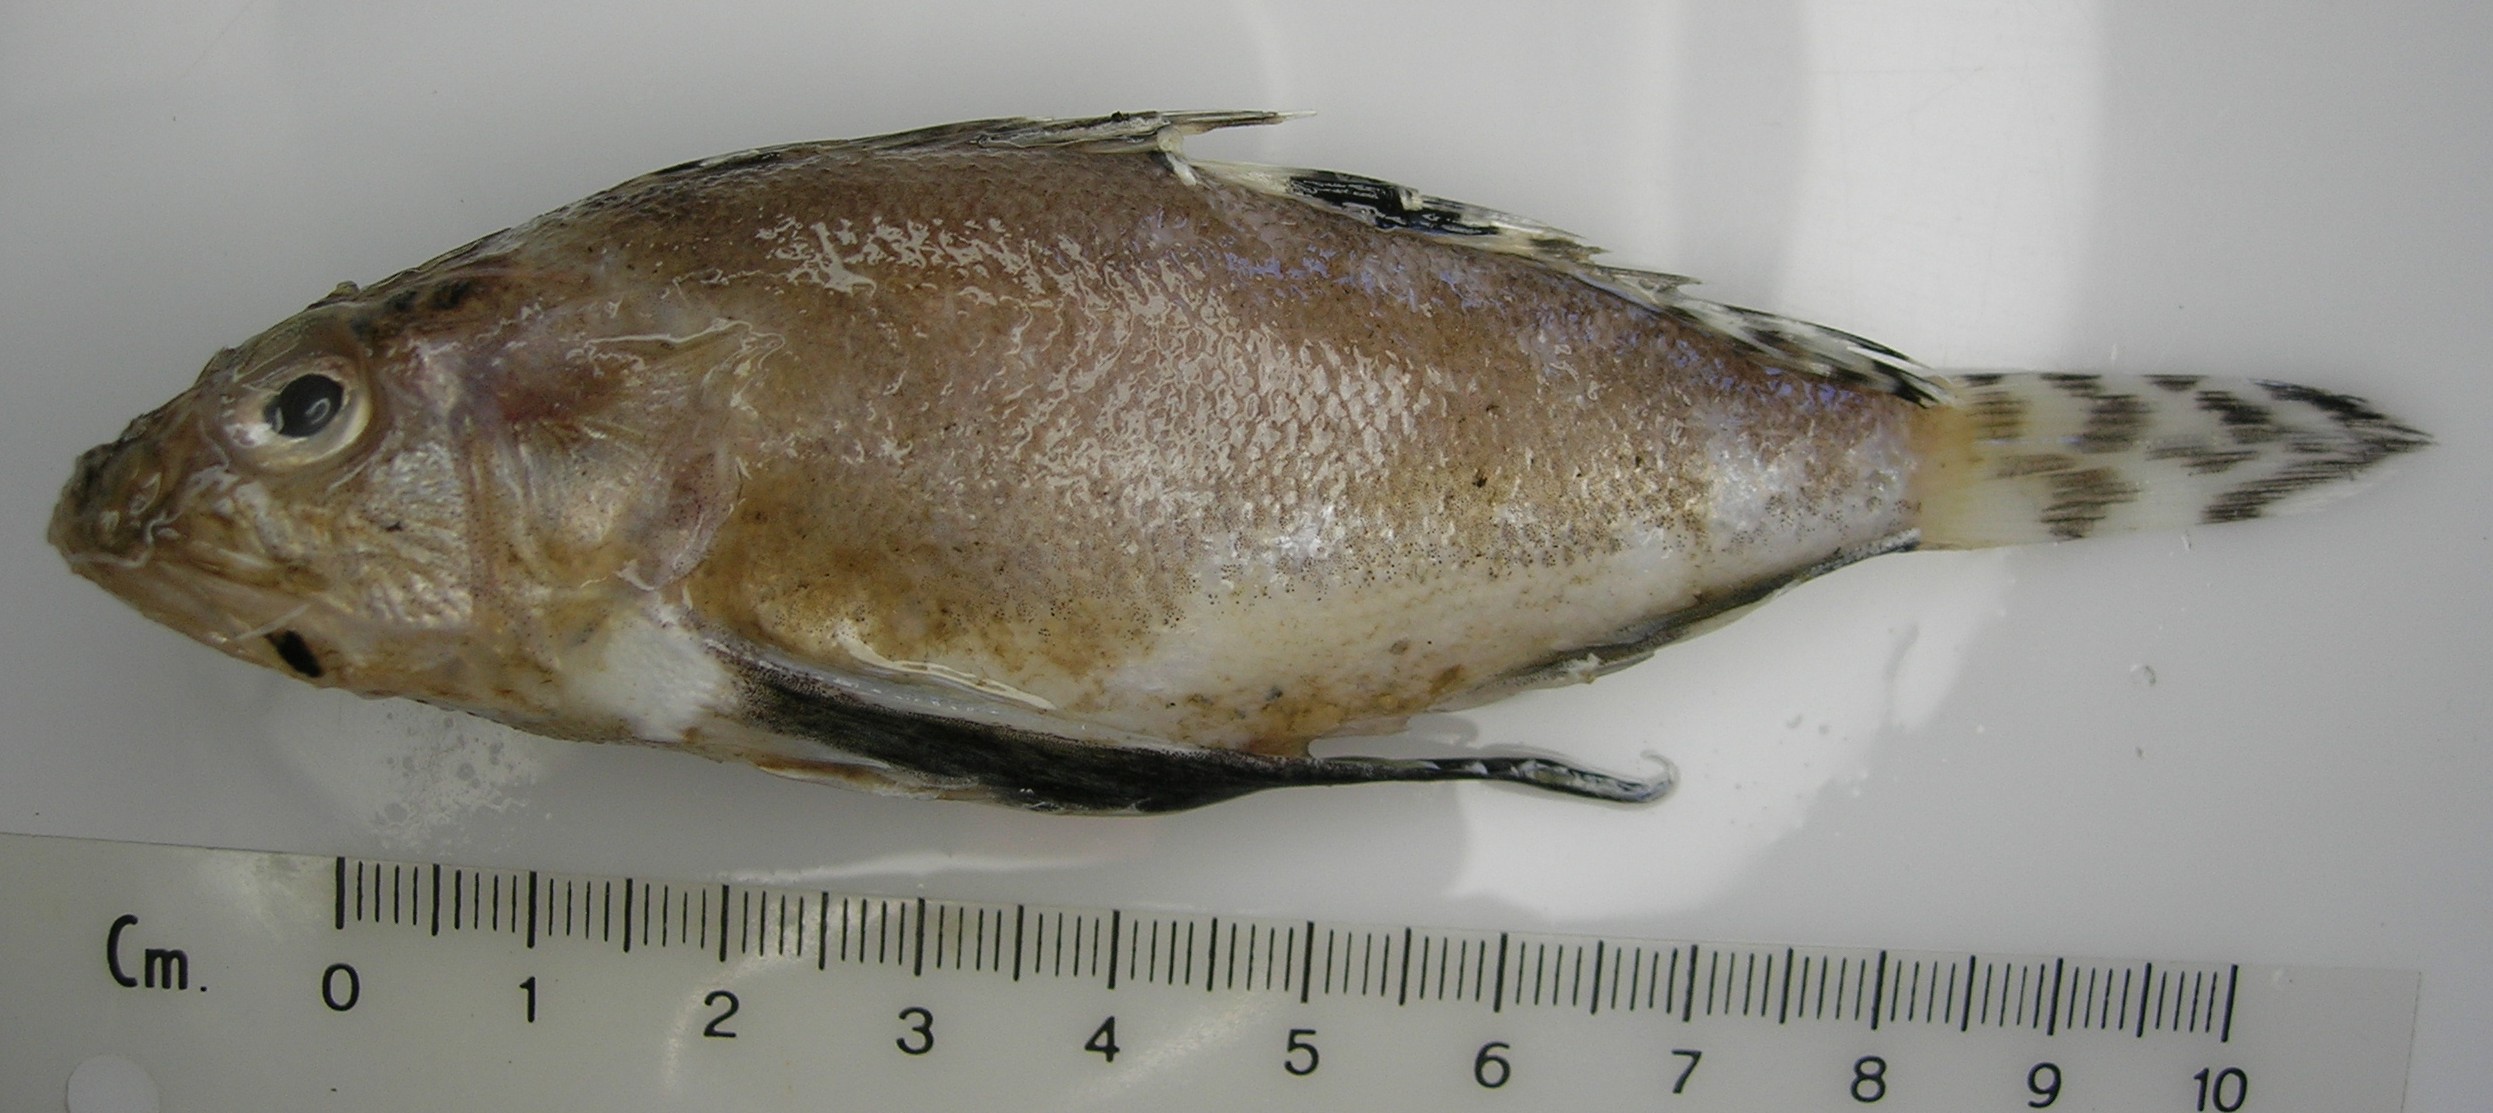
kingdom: Animalia
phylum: Chordata
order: Scorpaeniformes
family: Apistidae
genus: Apistus
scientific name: Apistus carinatus
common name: Ocellated waspfish
